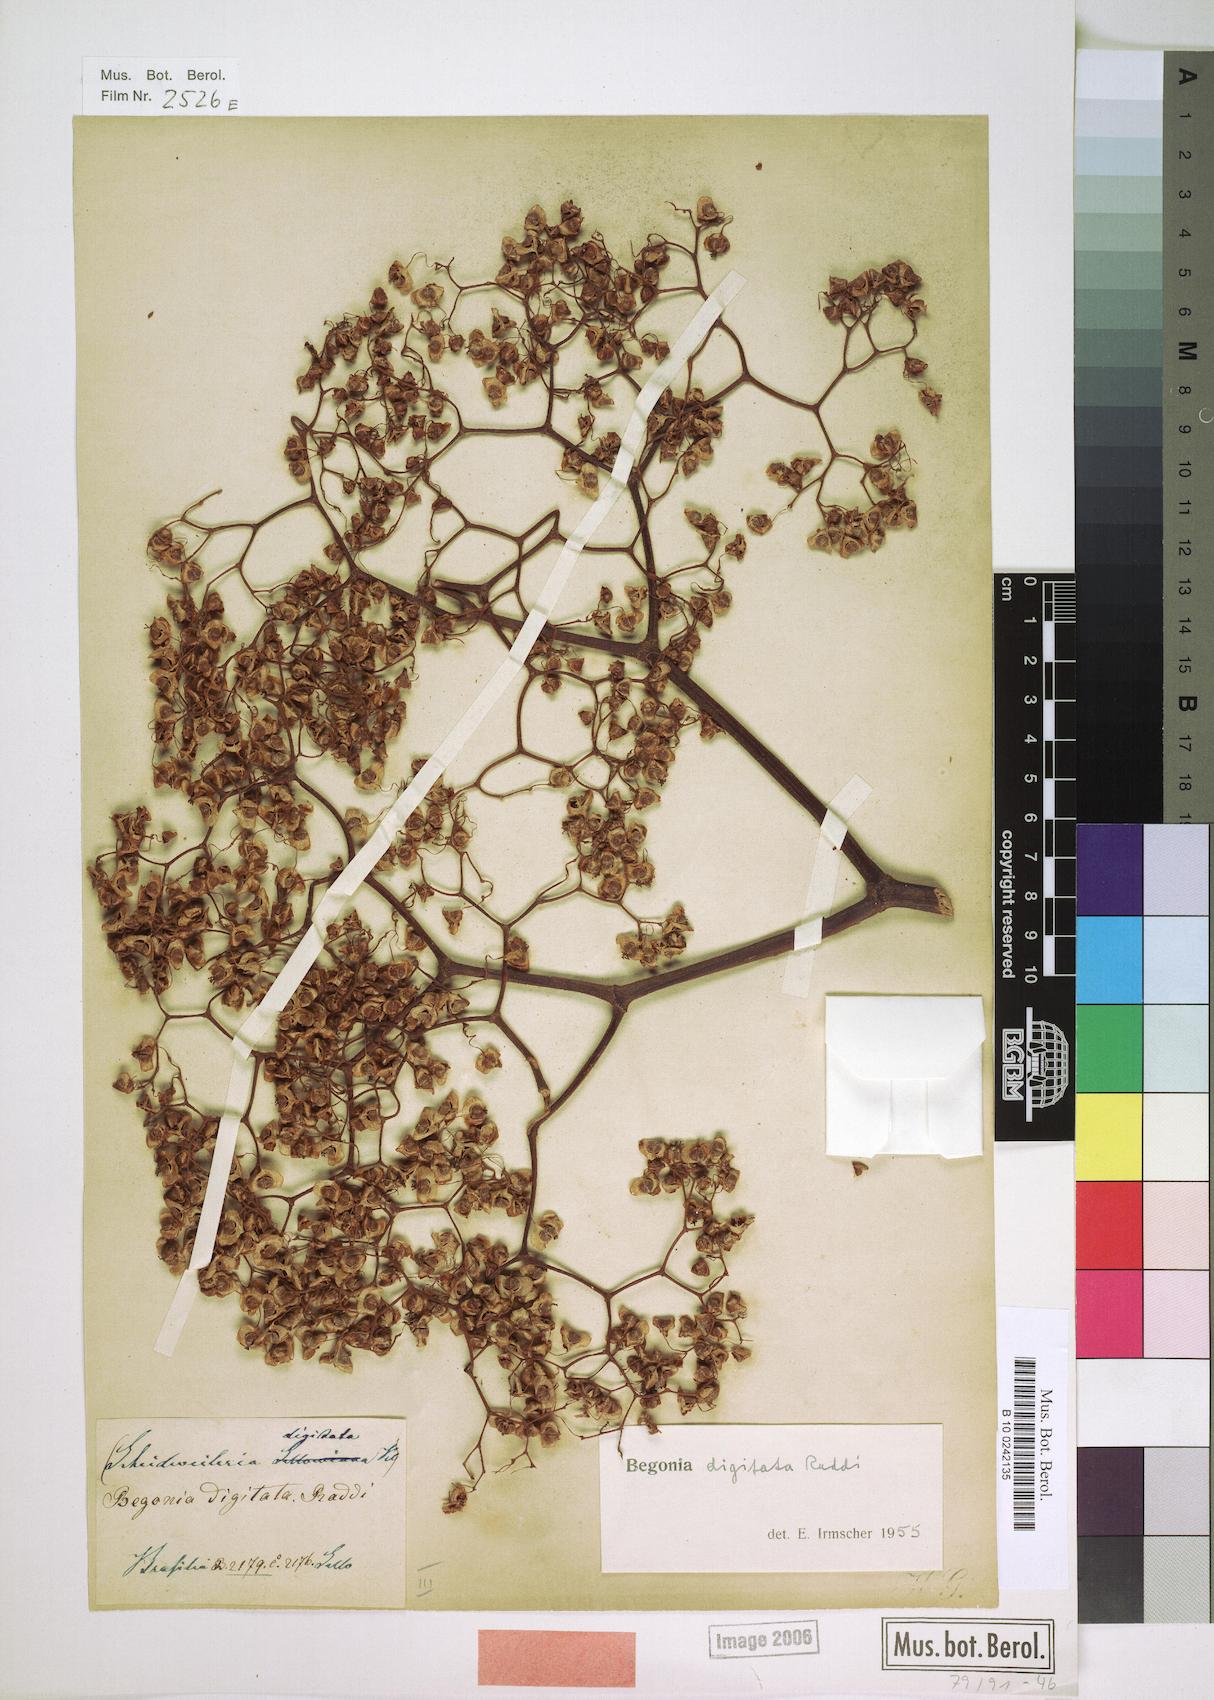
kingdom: Plantae
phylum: Tracheophyta
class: Magnoliopsida
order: Cucurbitales
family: Begoniaceae
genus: Begonia
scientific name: Begonia digitata
